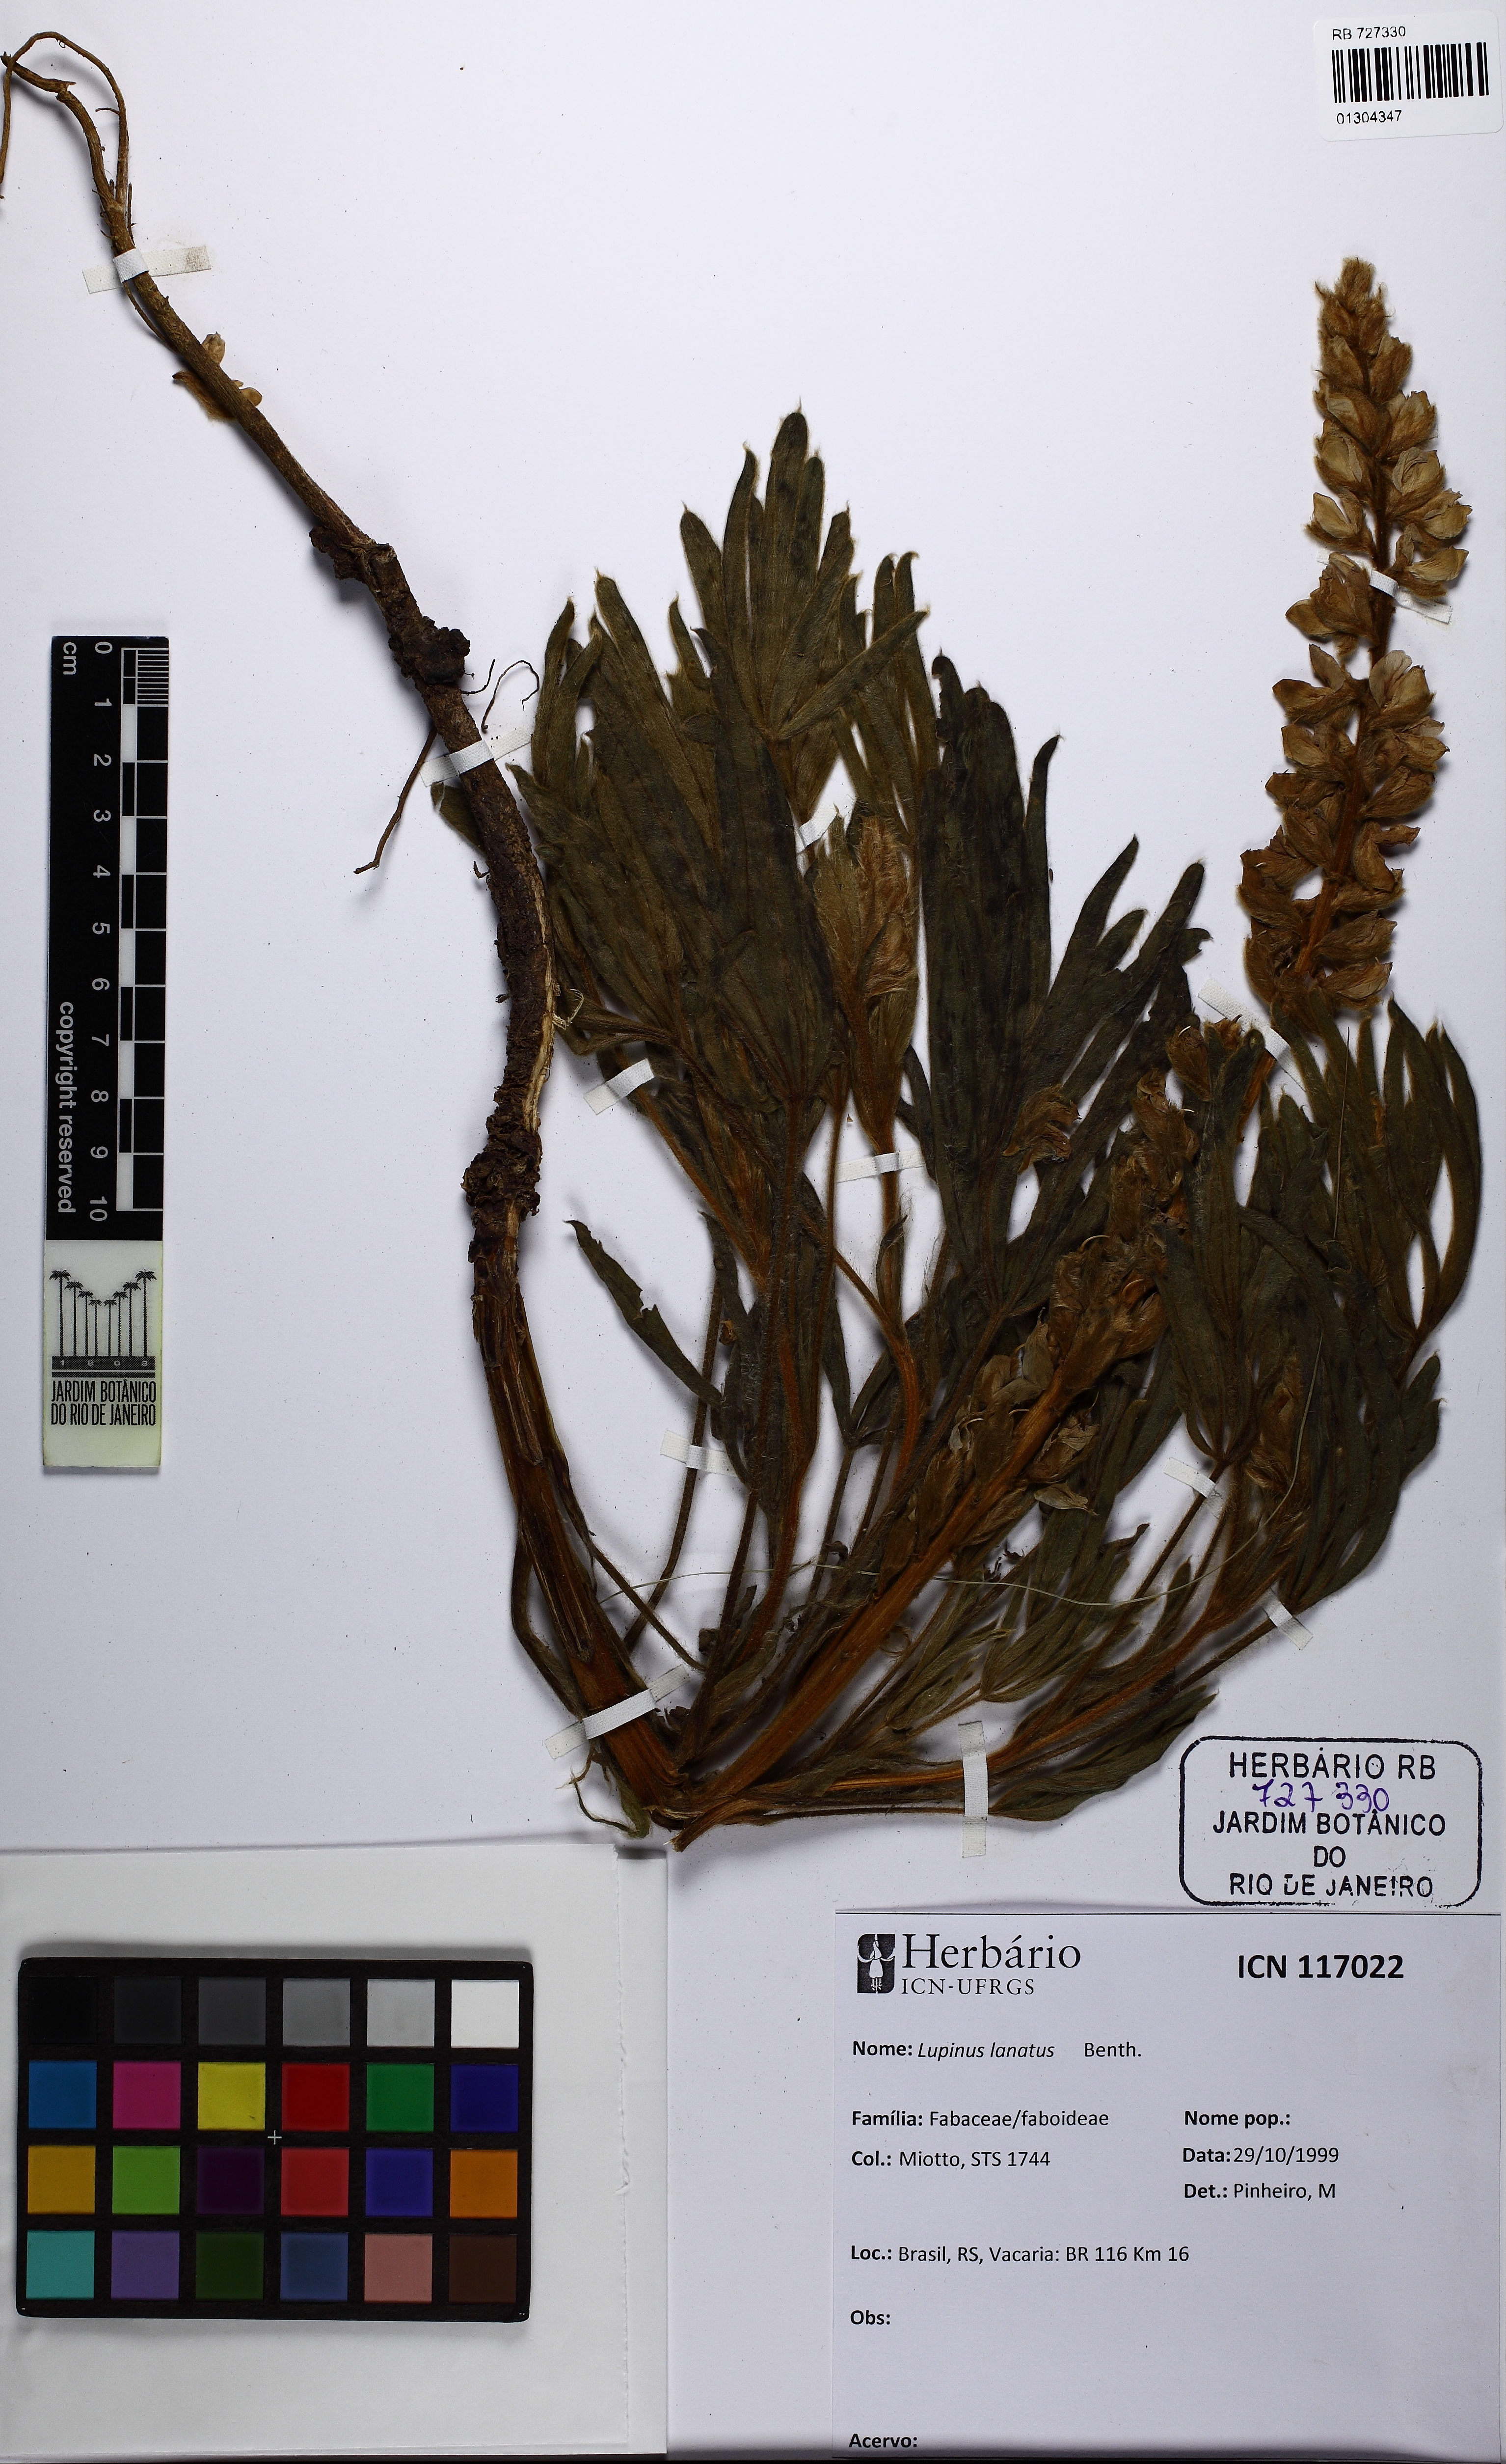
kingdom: Plantae
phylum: Tracheophyta
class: Magnoliopsida
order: Fabales
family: Fabaceae
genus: Lupinus
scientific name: Lupinus lanatus
